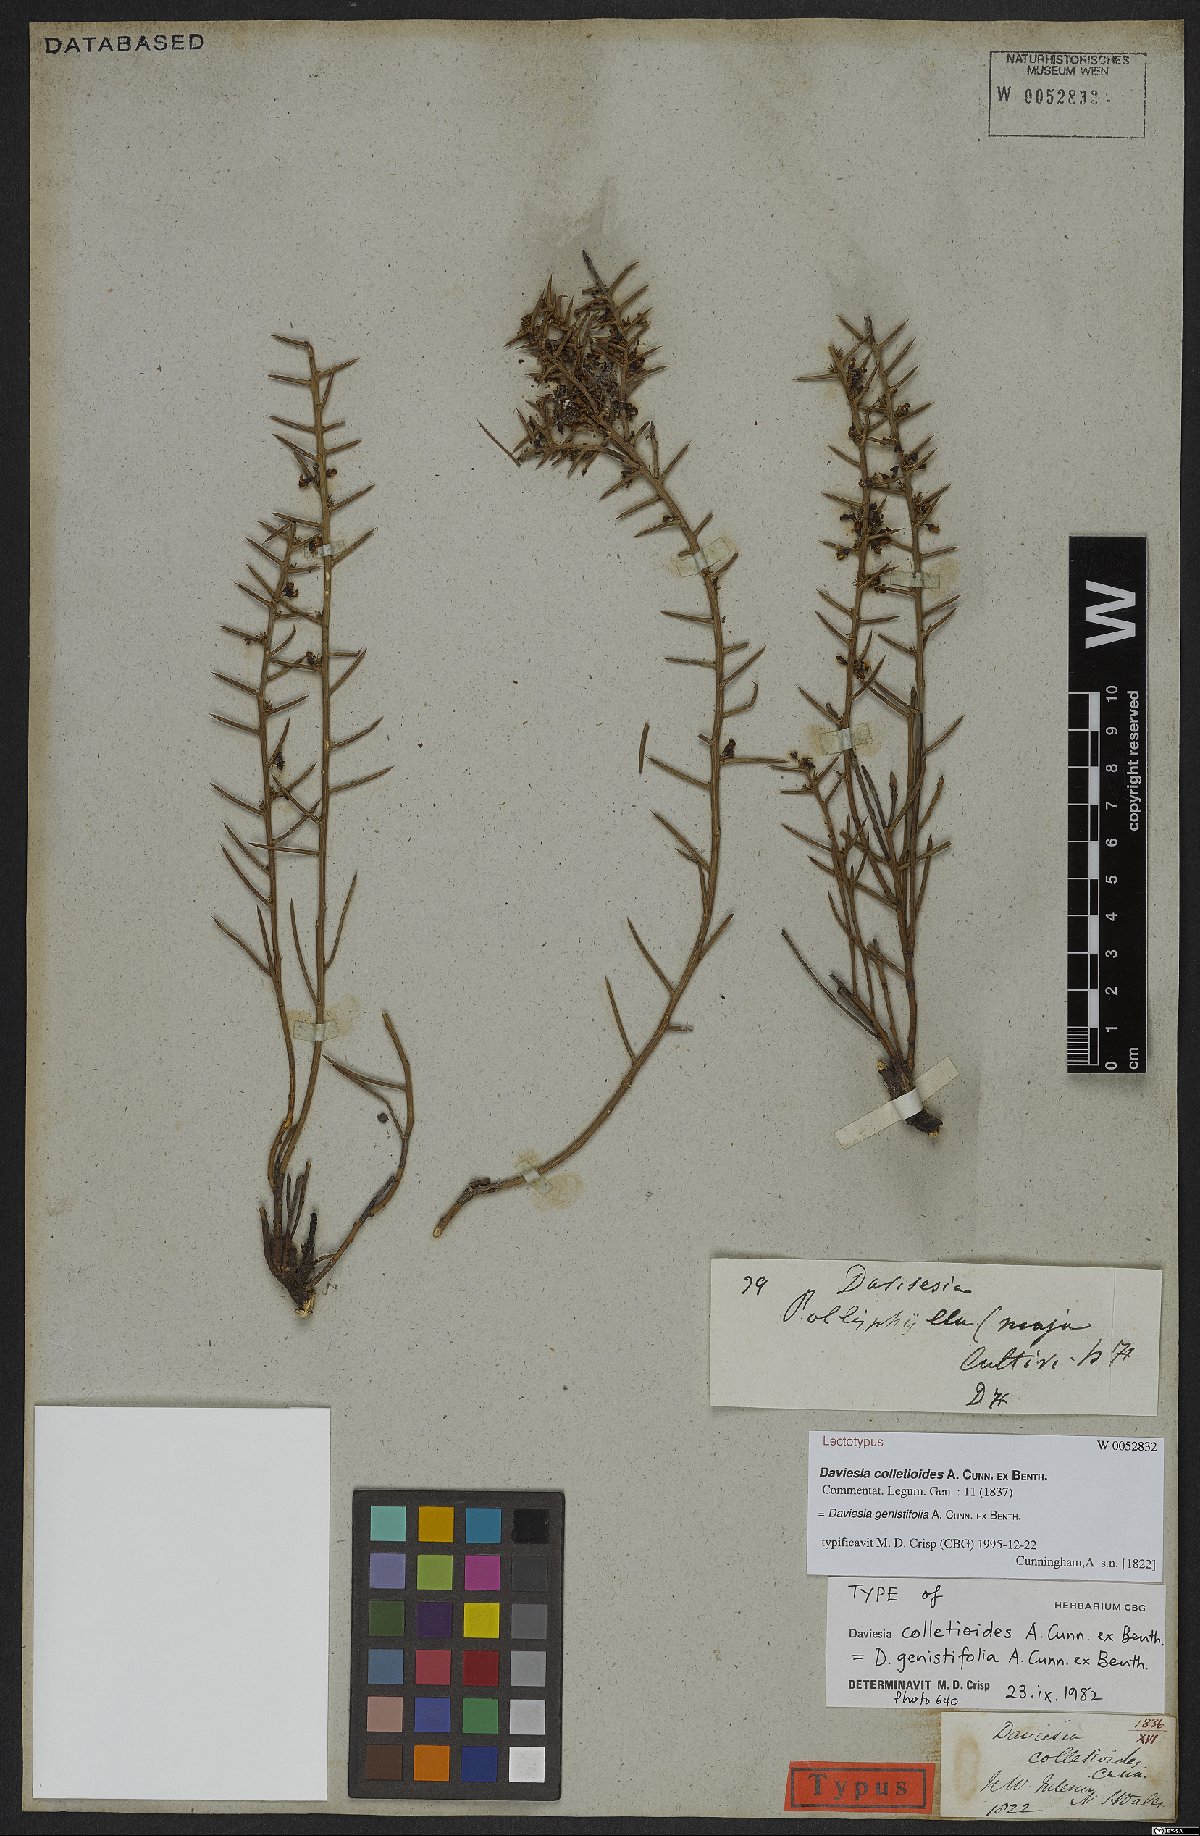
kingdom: Plantae
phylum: Tracheophyta
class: Magnoliopsida
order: Fabales
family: Fabaceae
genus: Daviesia
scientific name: Daviesia genistifolia
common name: Broom bitter-pea
